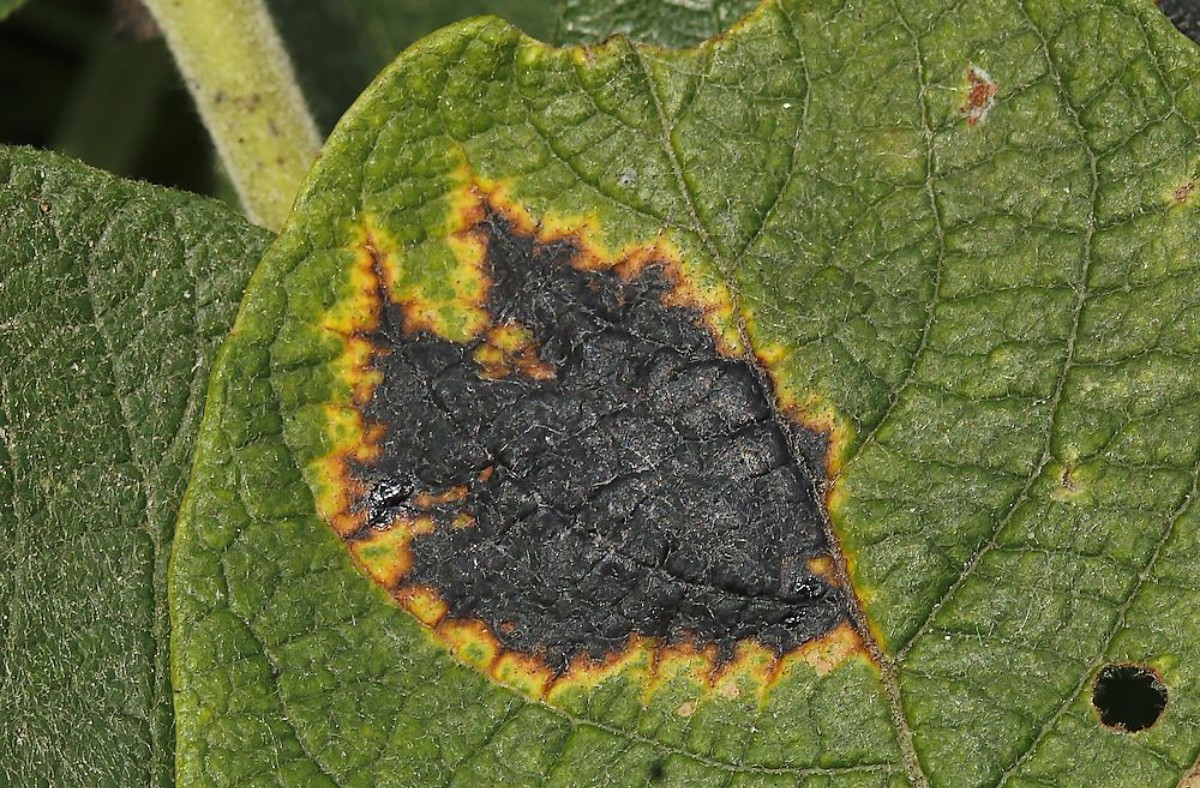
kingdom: Fungi
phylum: Ascomycota
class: Leotiomycetes
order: Rhytismatales
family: Rhytismataceae
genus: Rhytisma
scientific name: Rhytisma salicinum
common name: pile-rynkeplet
